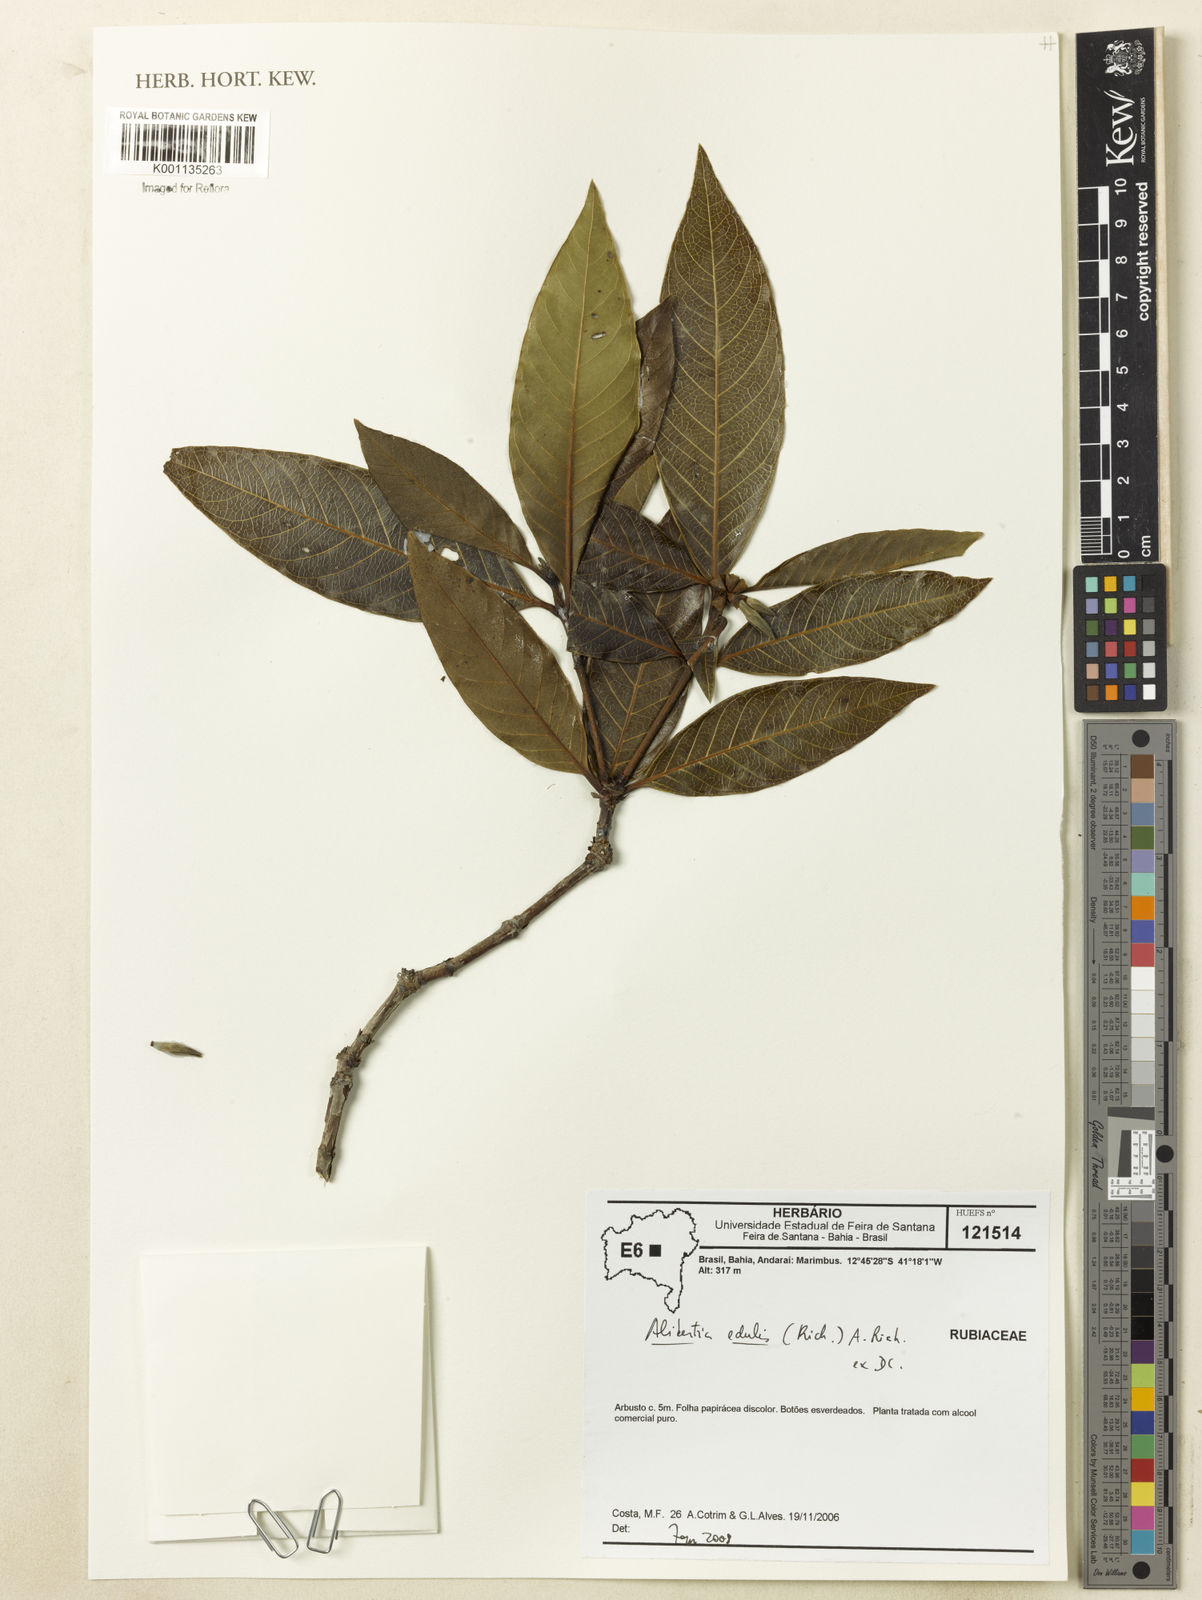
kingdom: Plantae
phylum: Tracheophyta
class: Magnoliopsida
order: Gentianales
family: Rubiaceae
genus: Alibertia
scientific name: Alibertia edulis
